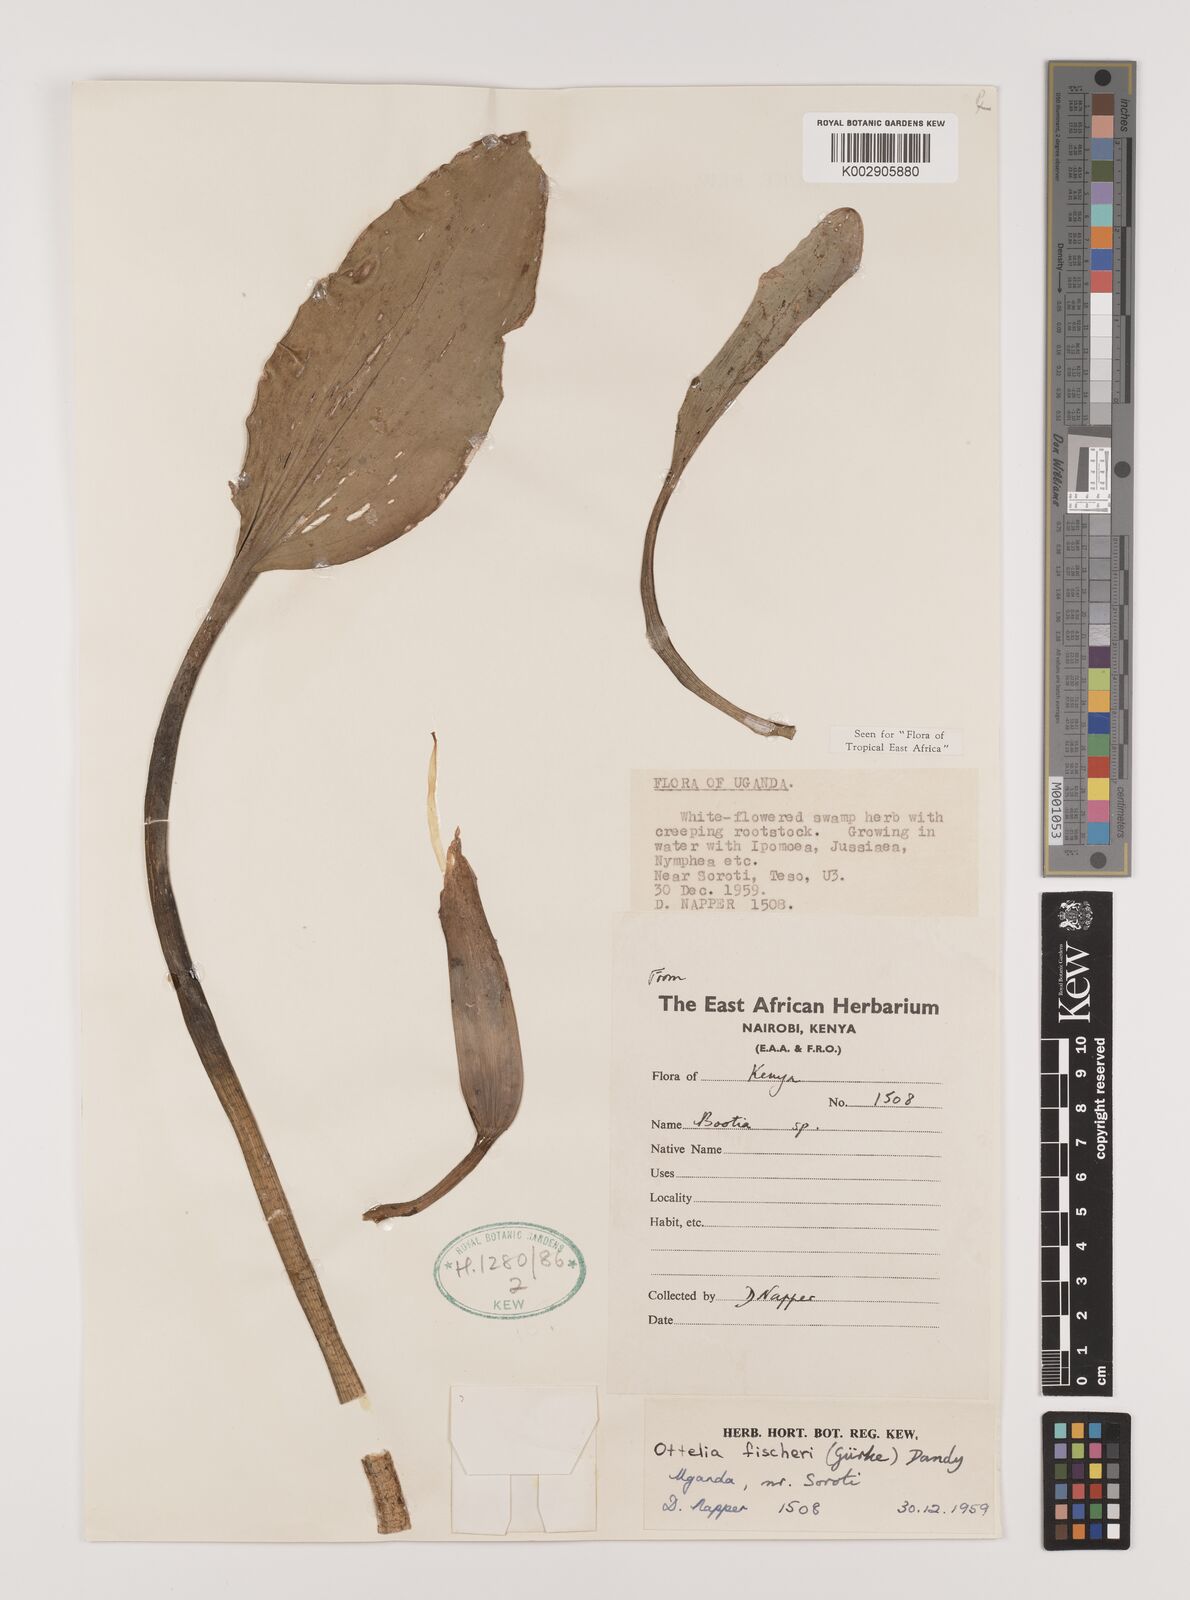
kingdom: Plantae
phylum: Tracheophyta
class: Liliopsida
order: Alismatales
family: Hydrocharitaceae
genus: Ottelia
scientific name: Ottelia fischeri
